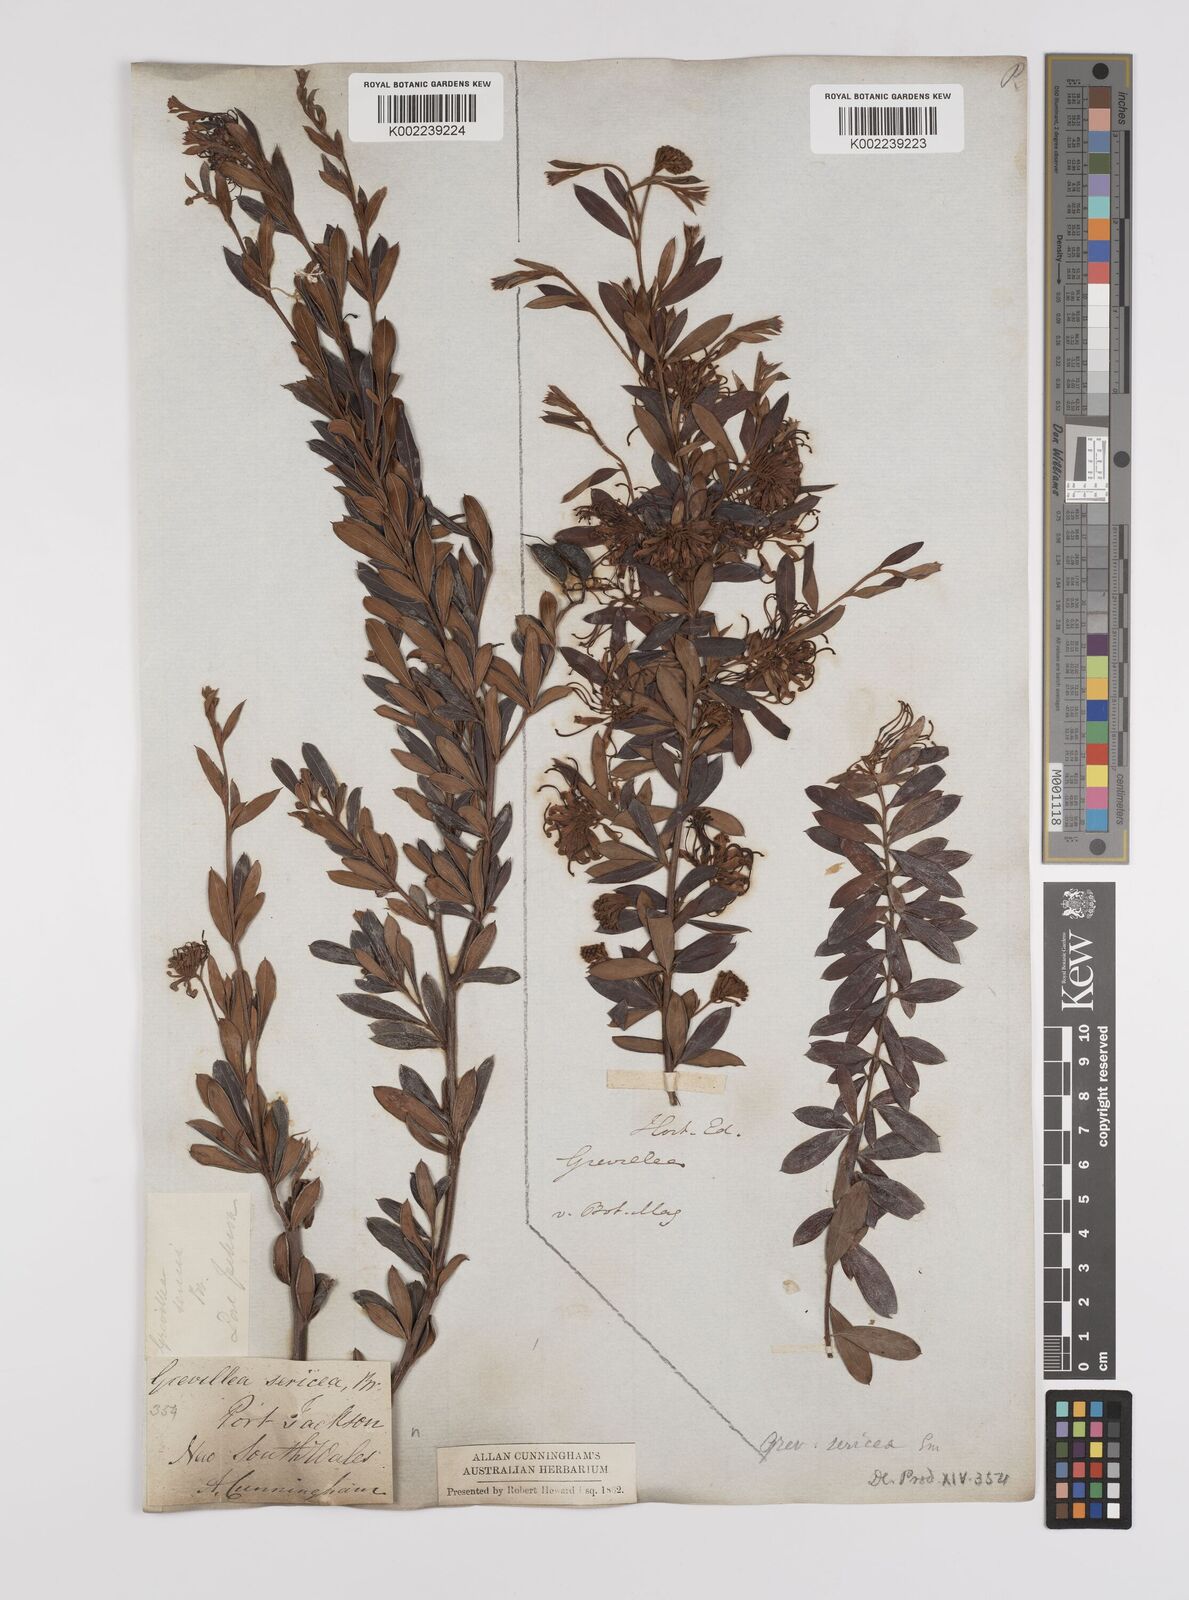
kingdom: Plantae
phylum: Tracheophyta
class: Magnoliopsida
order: Proteales
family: Proteaceae
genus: Grevillea
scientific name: Grevillea sericea
